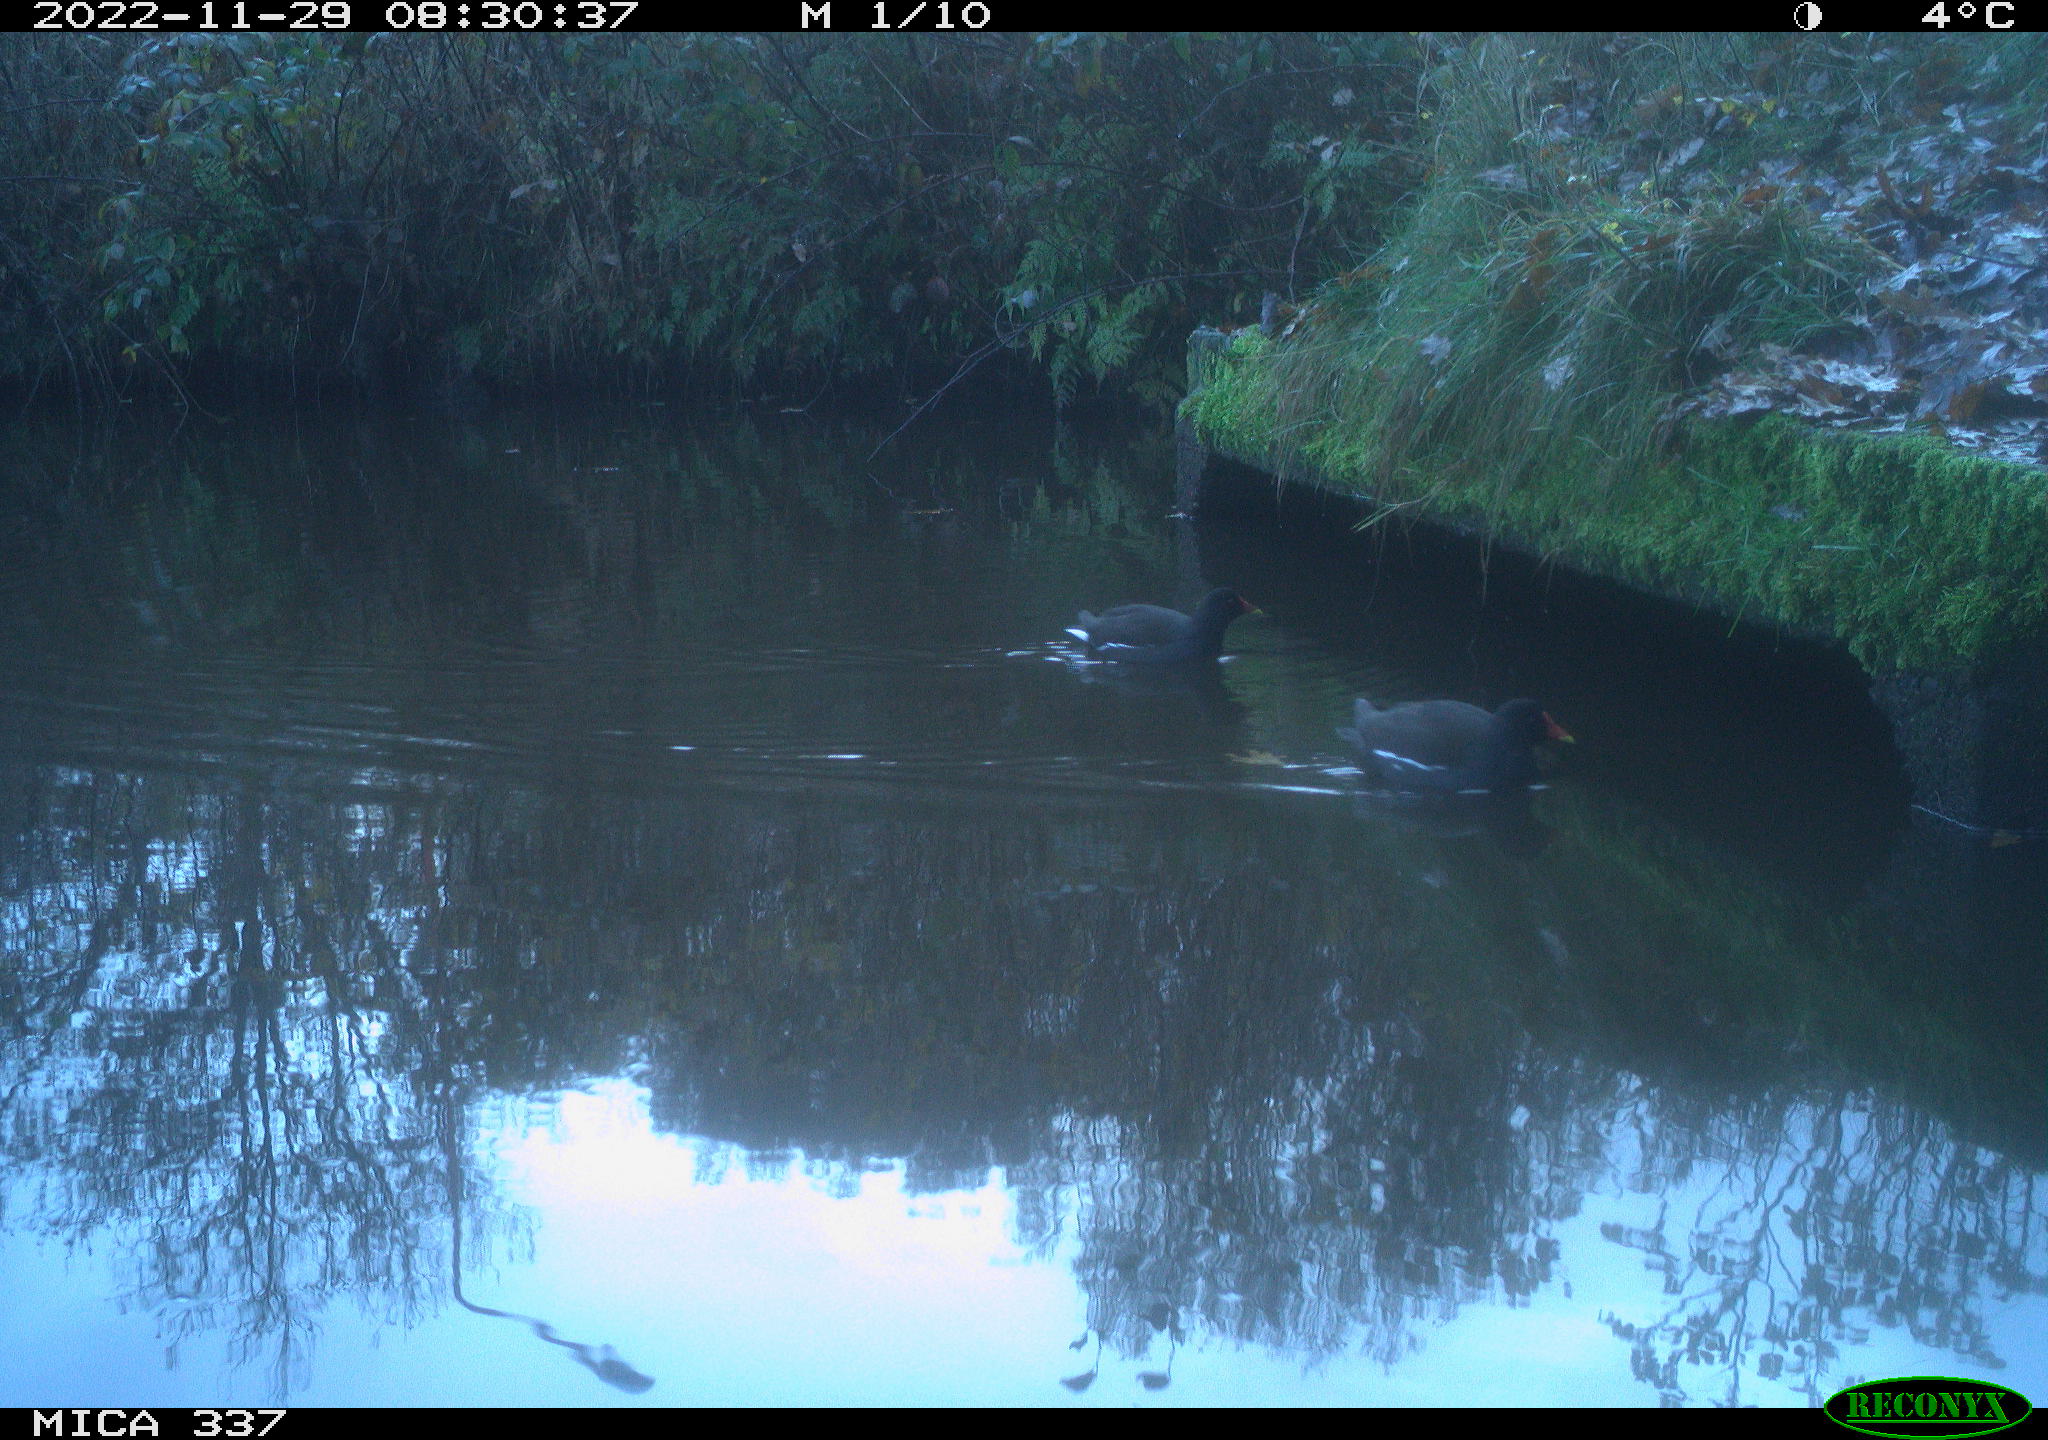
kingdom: Animalia
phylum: Chordata
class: Aves
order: Gruiformes
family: Rallidae
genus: Gallinula
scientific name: Gallinula chloropus
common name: Common moorhen
